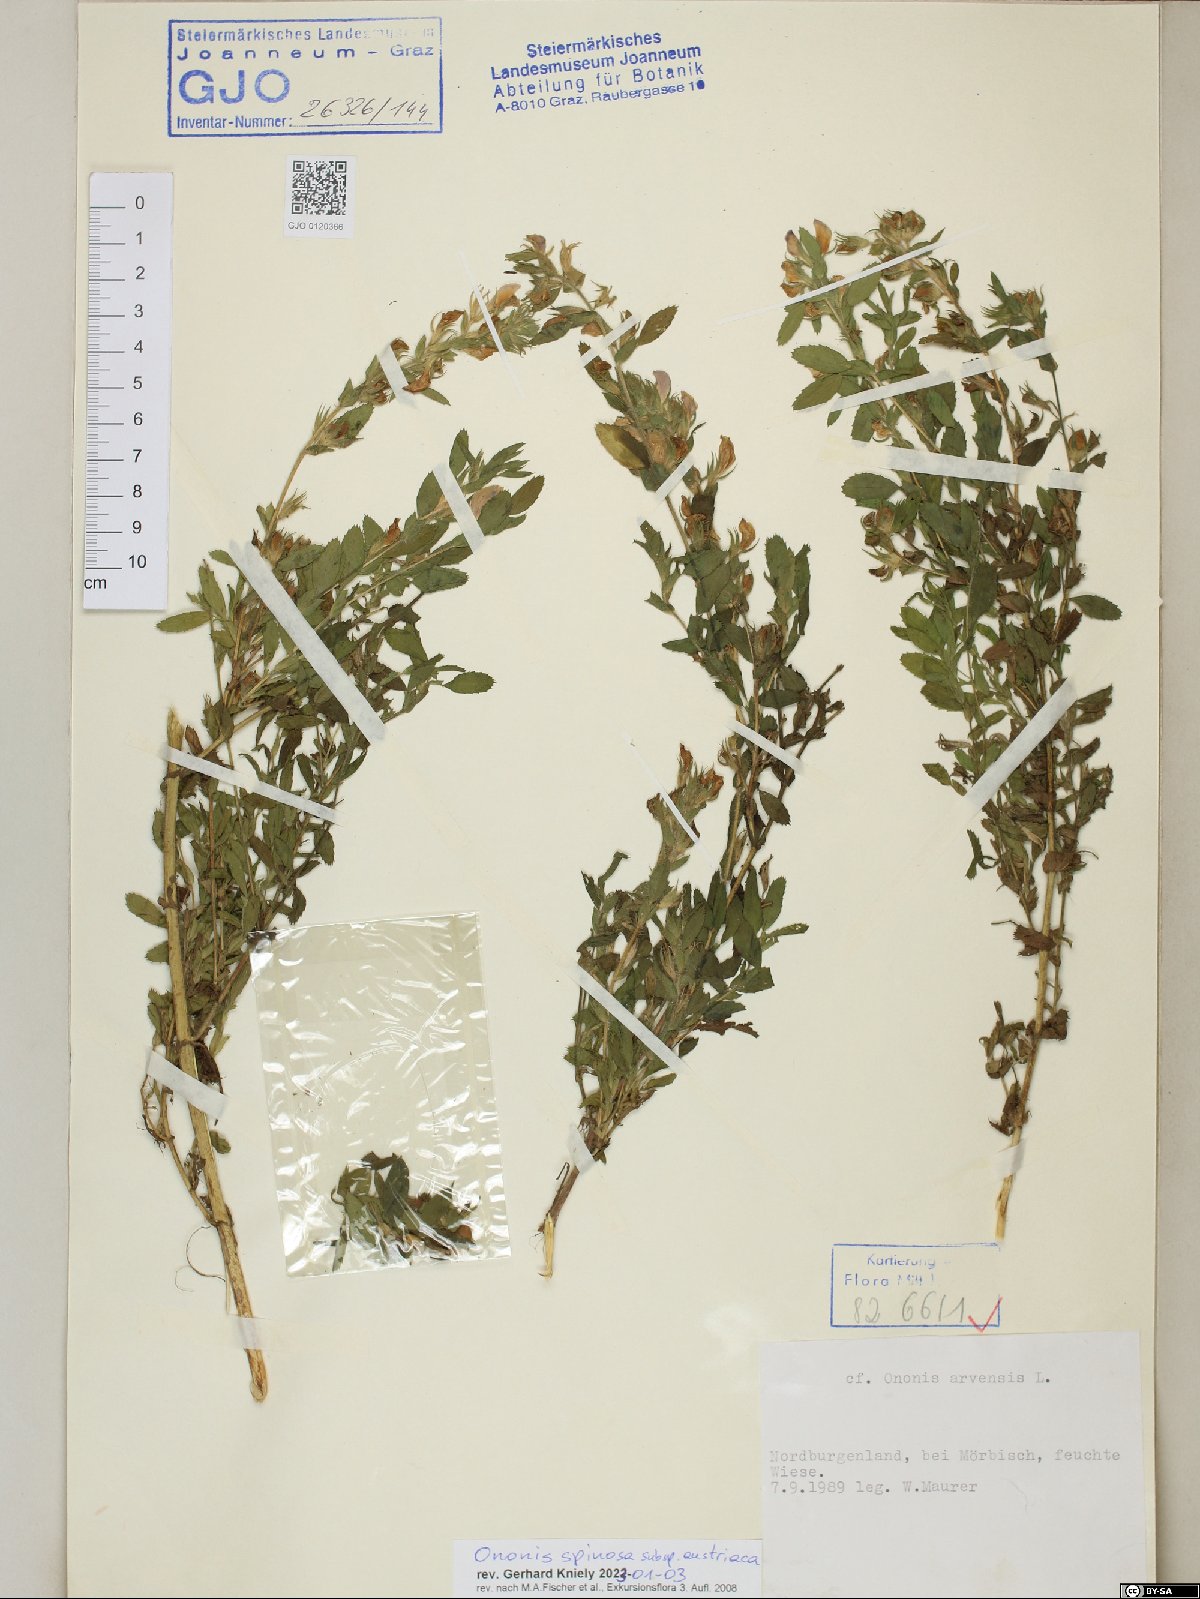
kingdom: Plantae
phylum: Tracheophyta
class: Magnoliopsida
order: Fabales
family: Fabaceae
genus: Ononis
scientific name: Ononis spinosa
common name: Spiny restharrow
